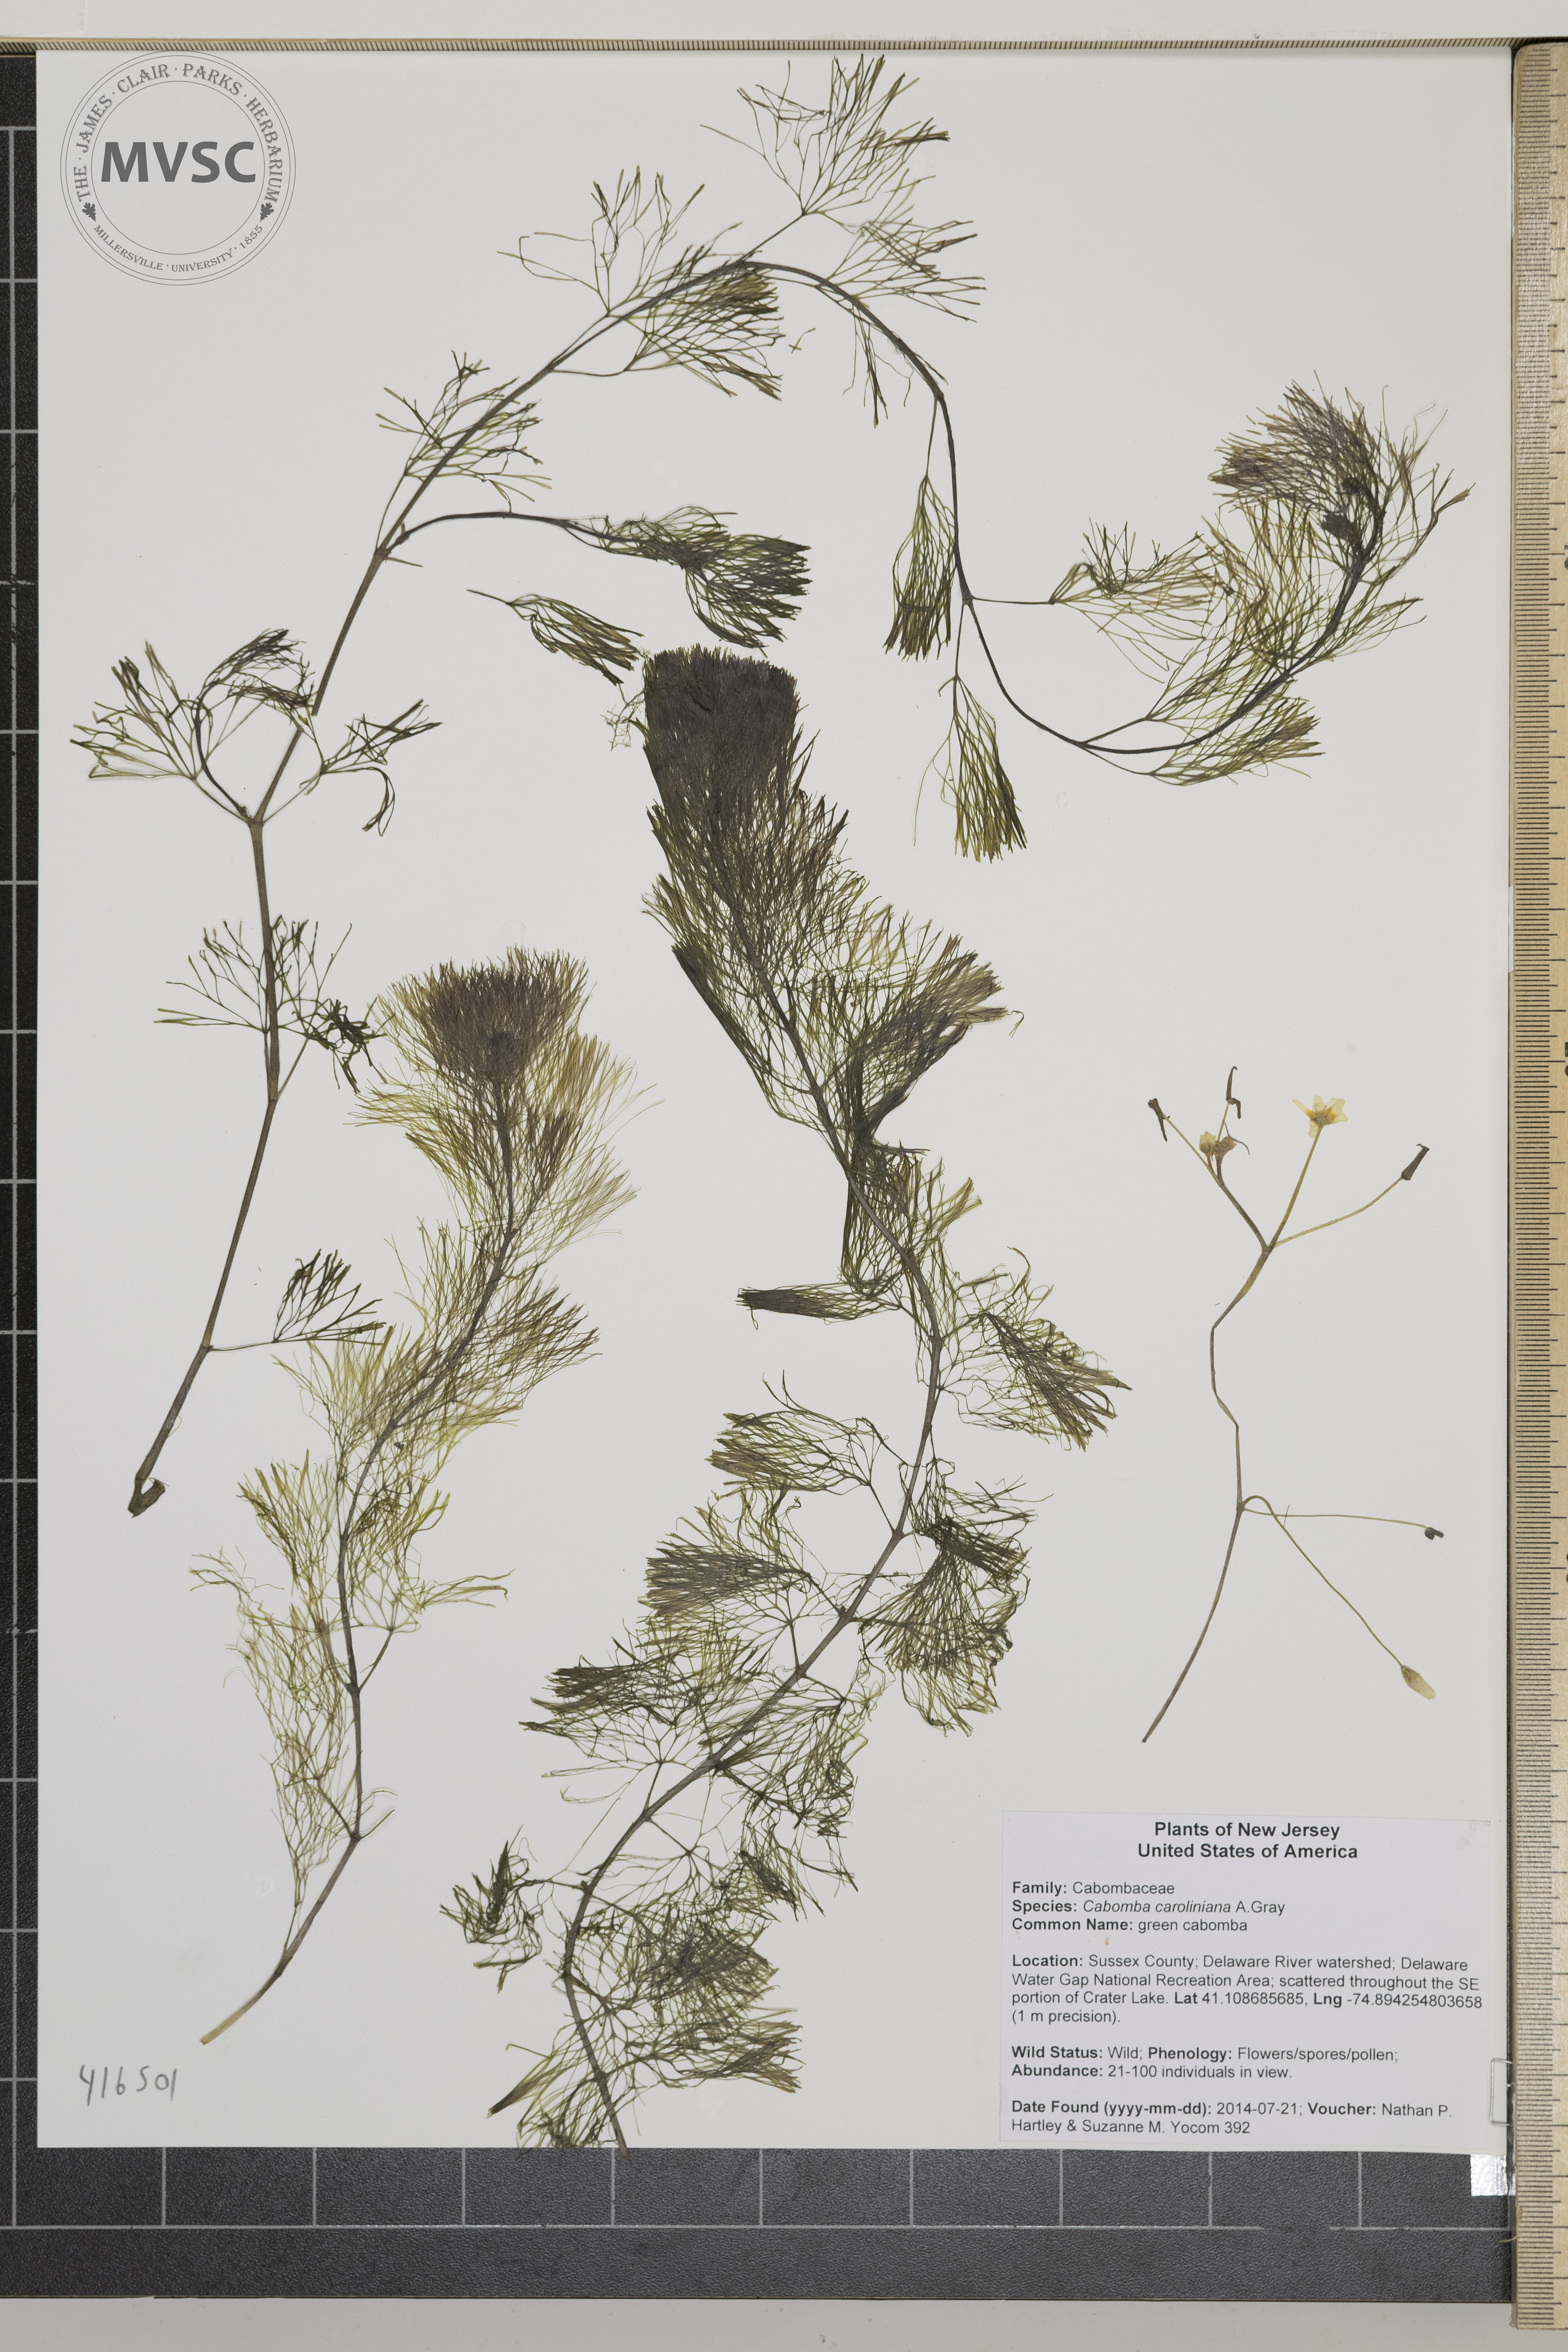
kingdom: Plantae
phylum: Tracheophyta
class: Magnoliopsida
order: Nymphaeales
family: Cabombaceae
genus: Cabomba
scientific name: Cabomba caroliniana
